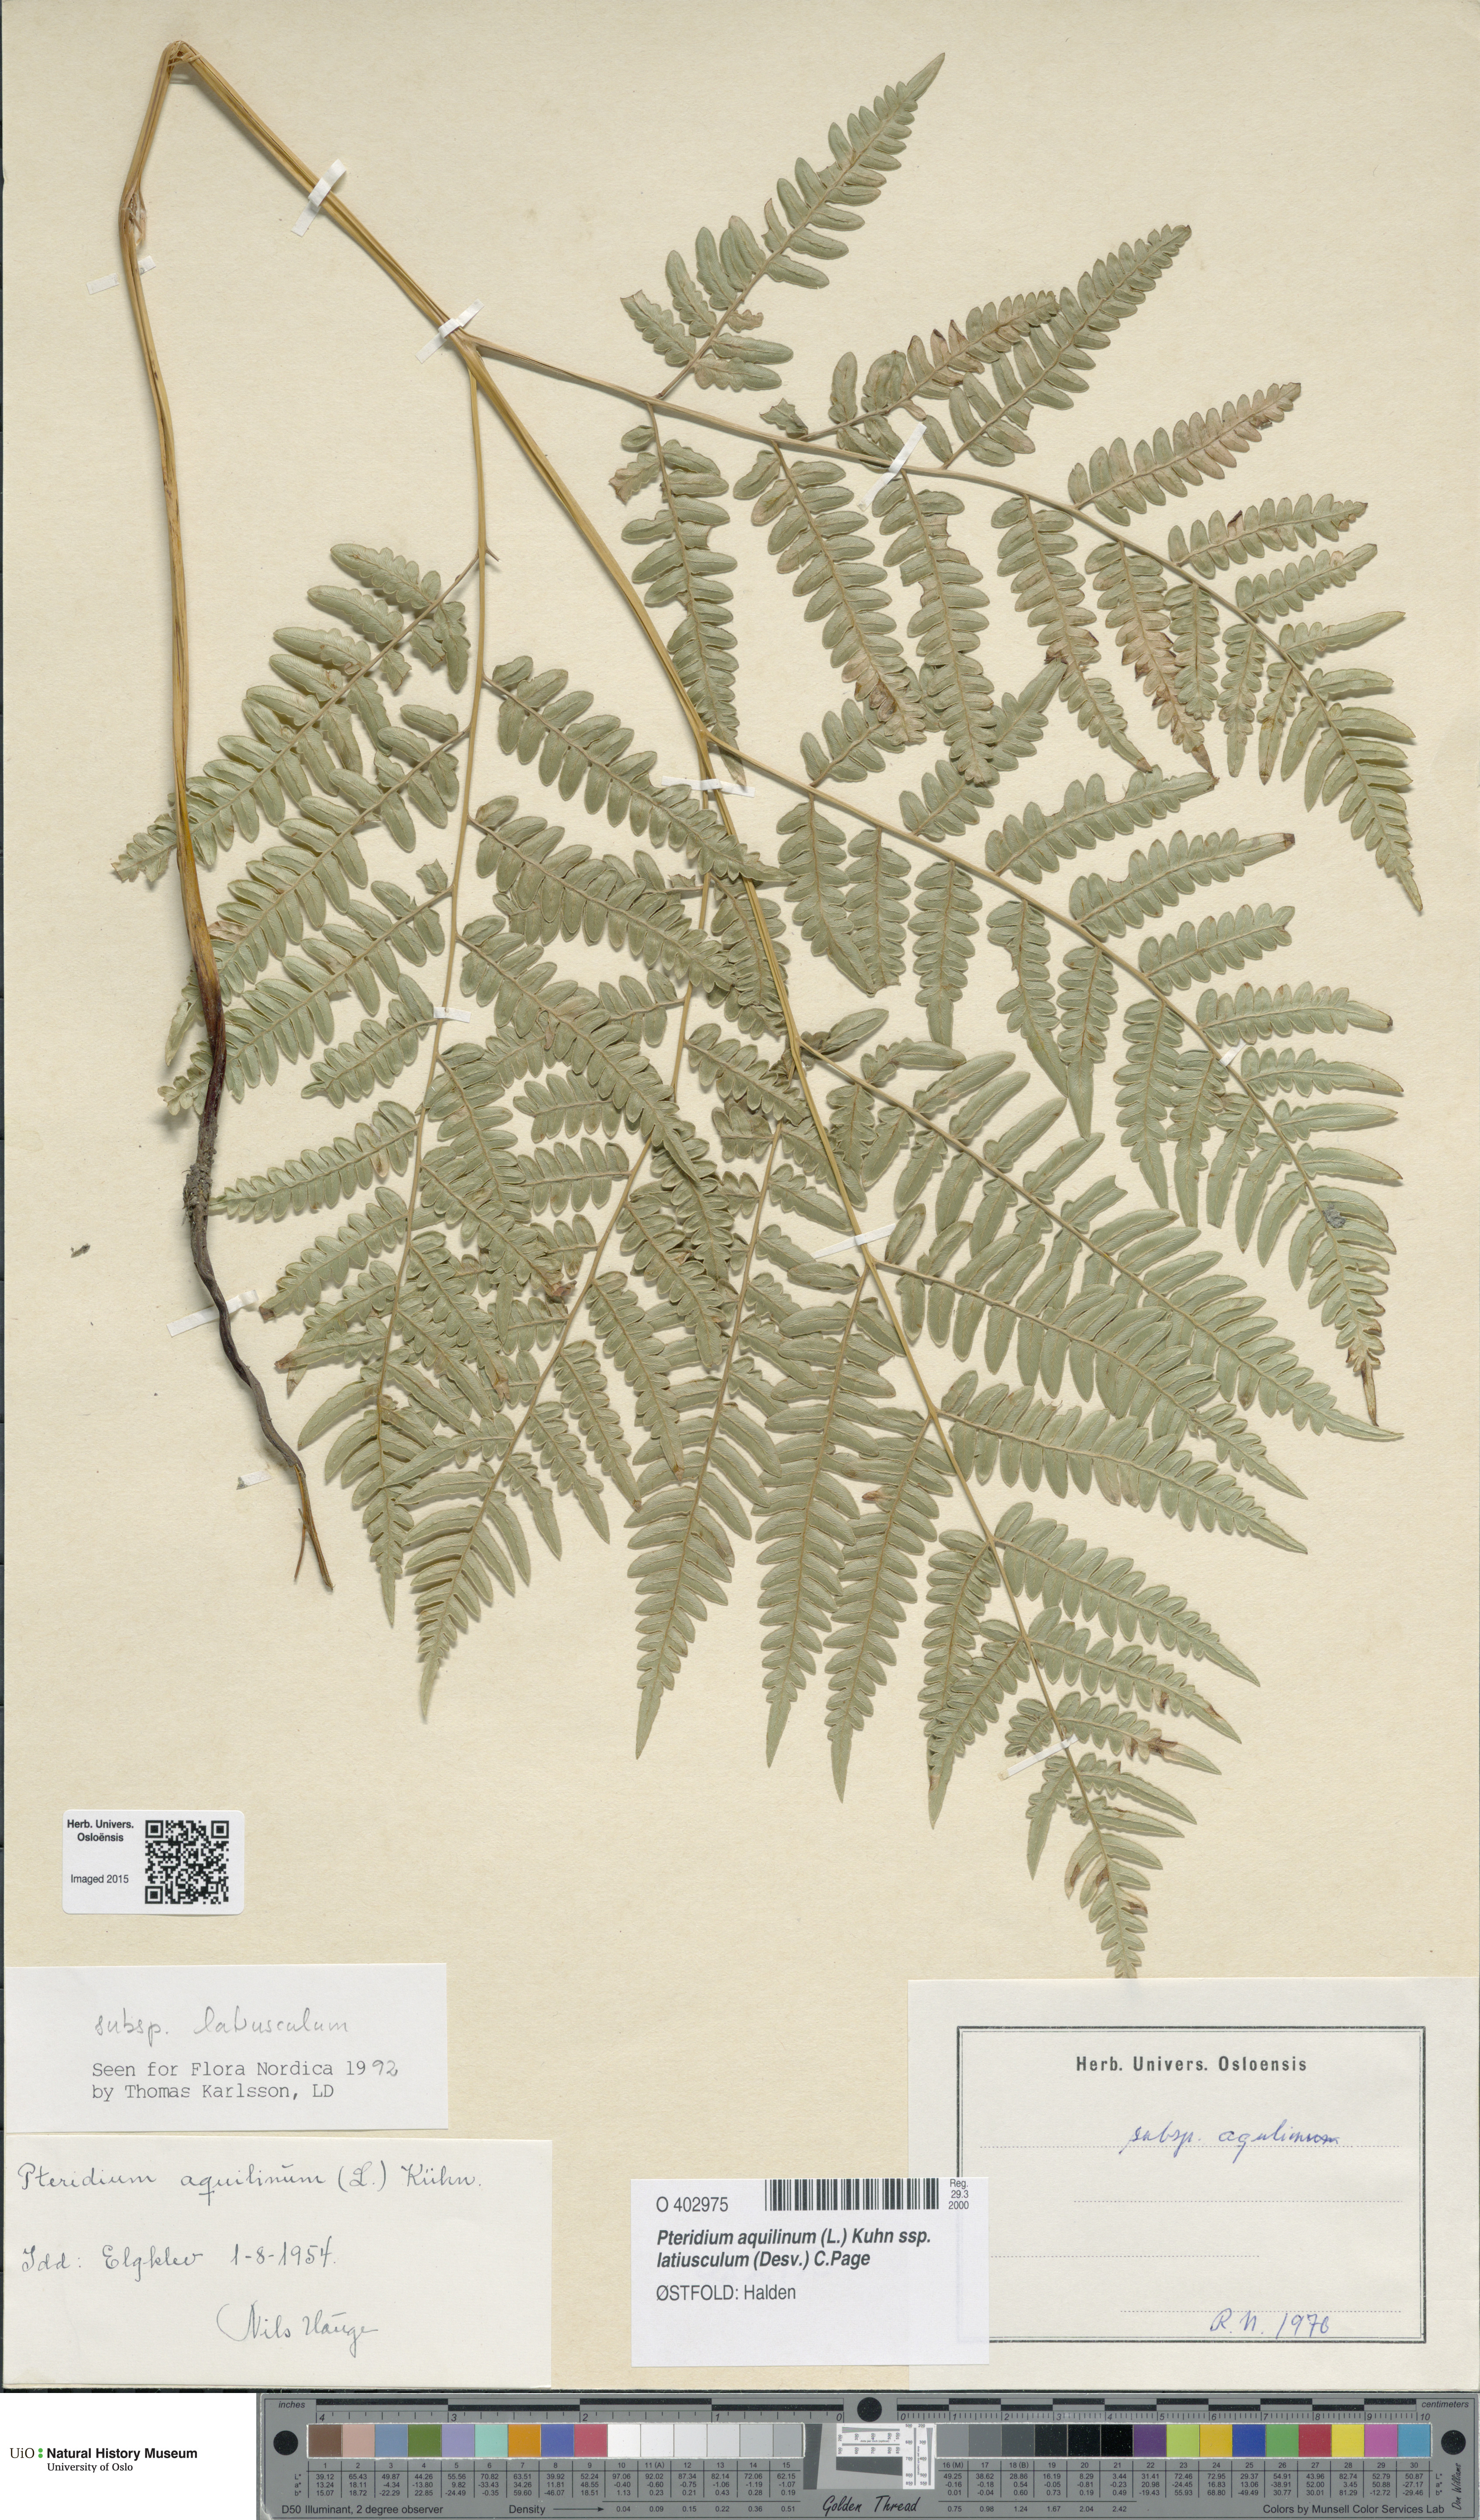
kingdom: Plantae
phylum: Tracheophyta
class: Polypodiopsida
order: Polypodiales
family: Dennstaedtiaceae
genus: Pteridium
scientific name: Pteridium aquilinum
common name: Bracken
